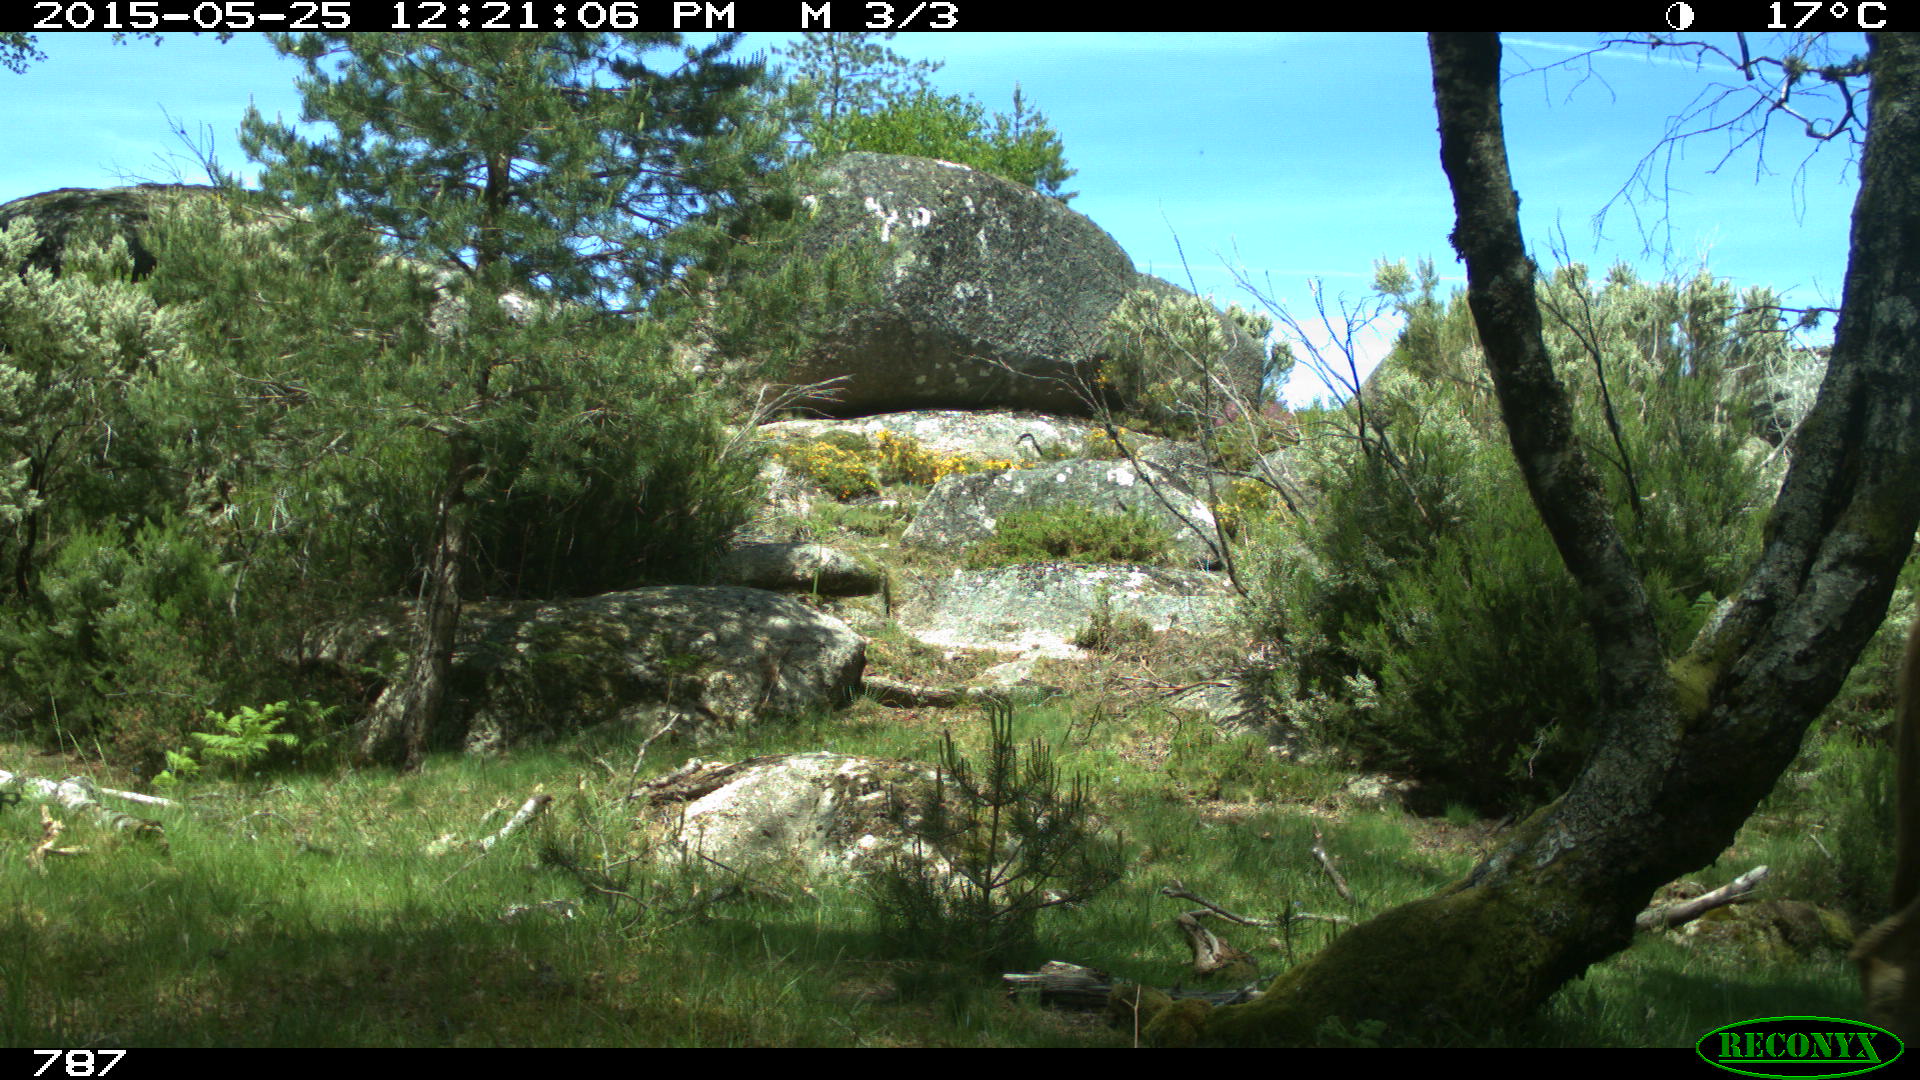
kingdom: Animalia
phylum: Chordata
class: Mammalia
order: Artiodactyla
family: Bovidae
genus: Bos
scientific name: Bos taurus
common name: Domesticated cattle
